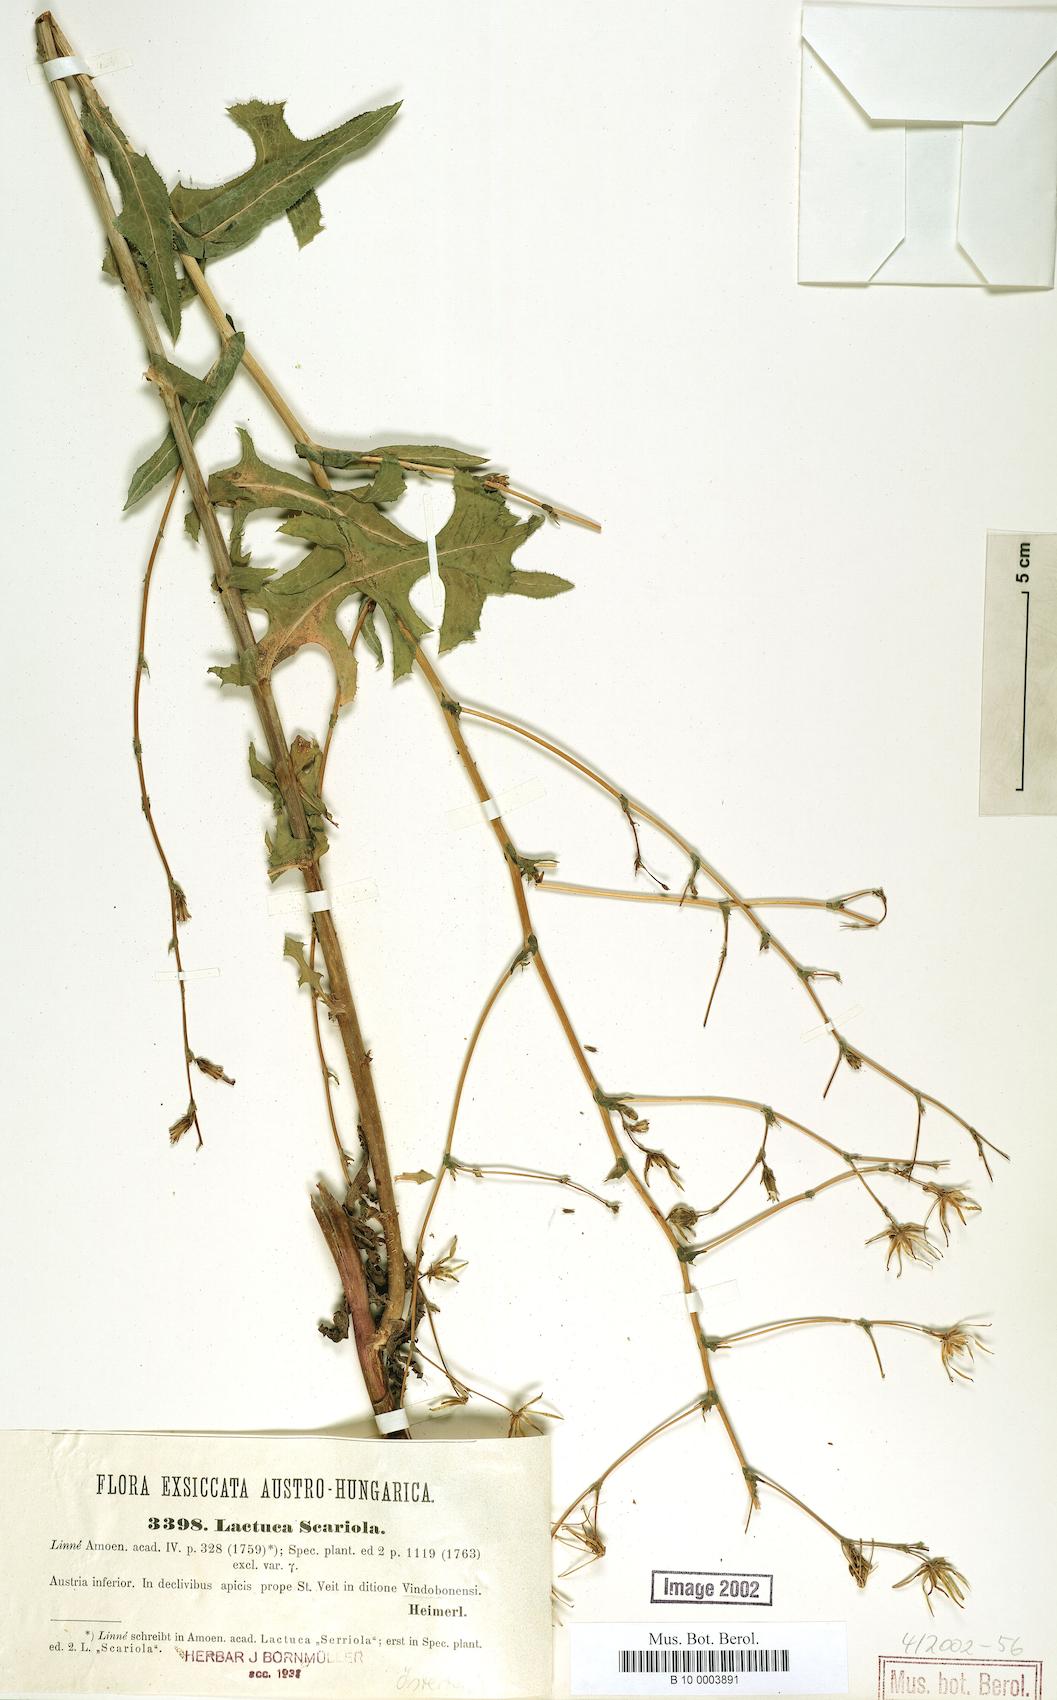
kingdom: Plantae
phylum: Tracheophyta
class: Magnoliopsida
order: Asterales
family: Asteraceae
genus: Lactuca
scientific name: Lactuca serriola
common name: Prickly lettuce
